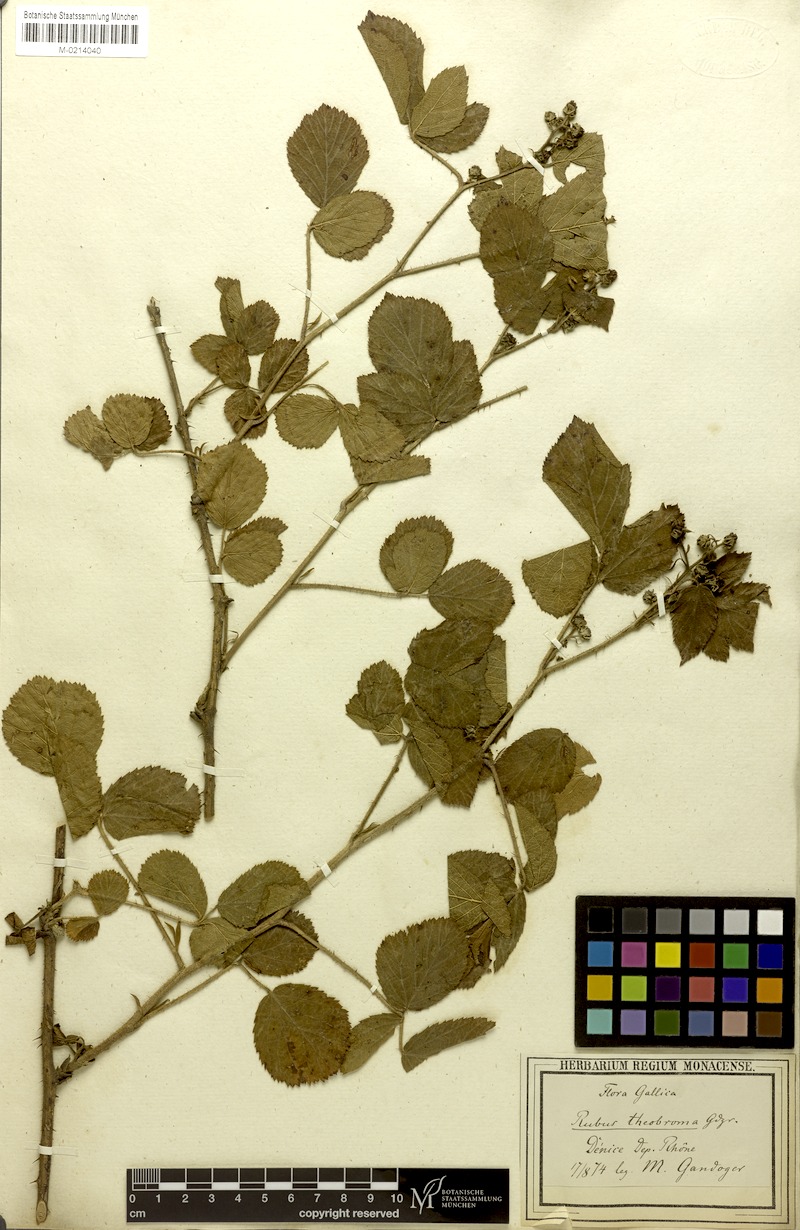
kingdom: Plantae
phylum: Tracheophyta
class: Magnoliopsida
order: Rosales
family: Rosaceae
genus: Rubus
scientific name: Rubus
